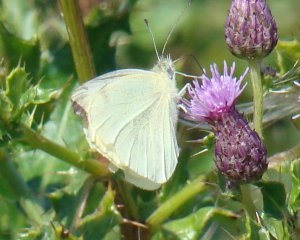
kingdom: Animalia
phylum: Arthropoda
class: Insecta
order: Lepidoptera
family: Pieridae
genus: Pieris
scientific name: Pieris rapae
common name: Cabbage White
